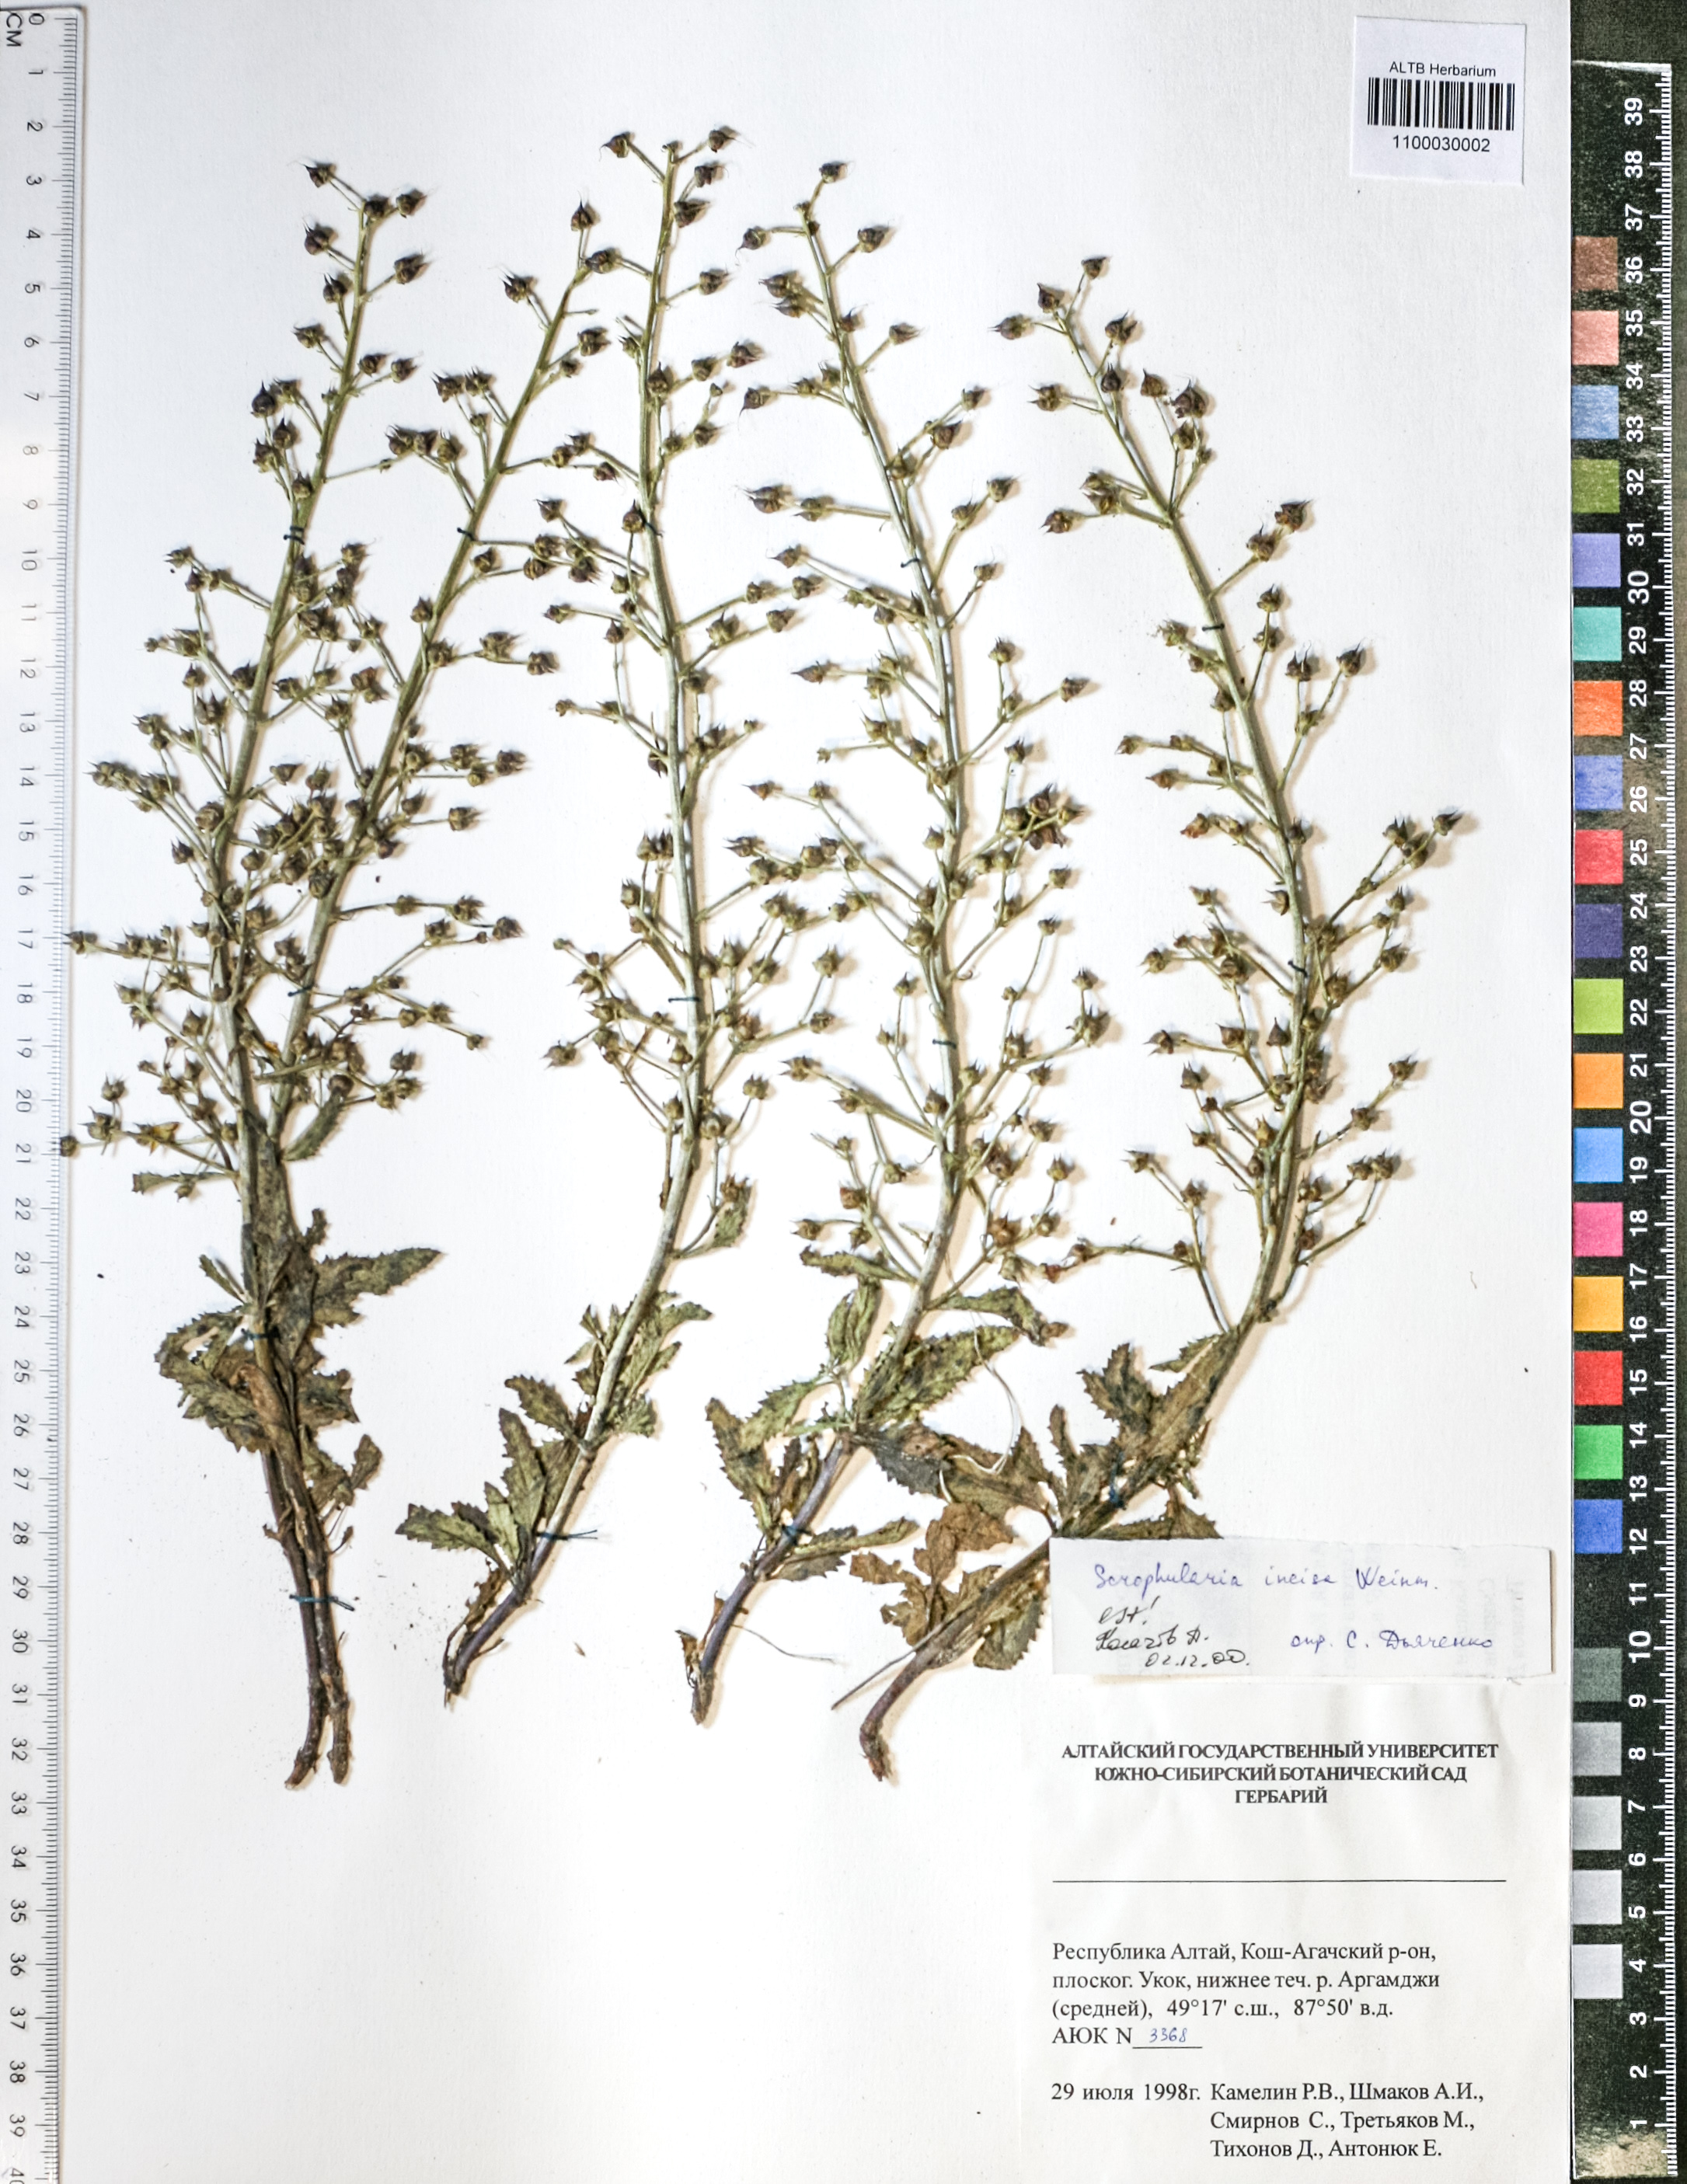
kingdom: Plantae
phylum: Tracheophyta
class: Magnoliopsida
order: Lamiales
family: Scrophulariaceae
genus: Scrophularia
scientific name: Scrophularia incisa
